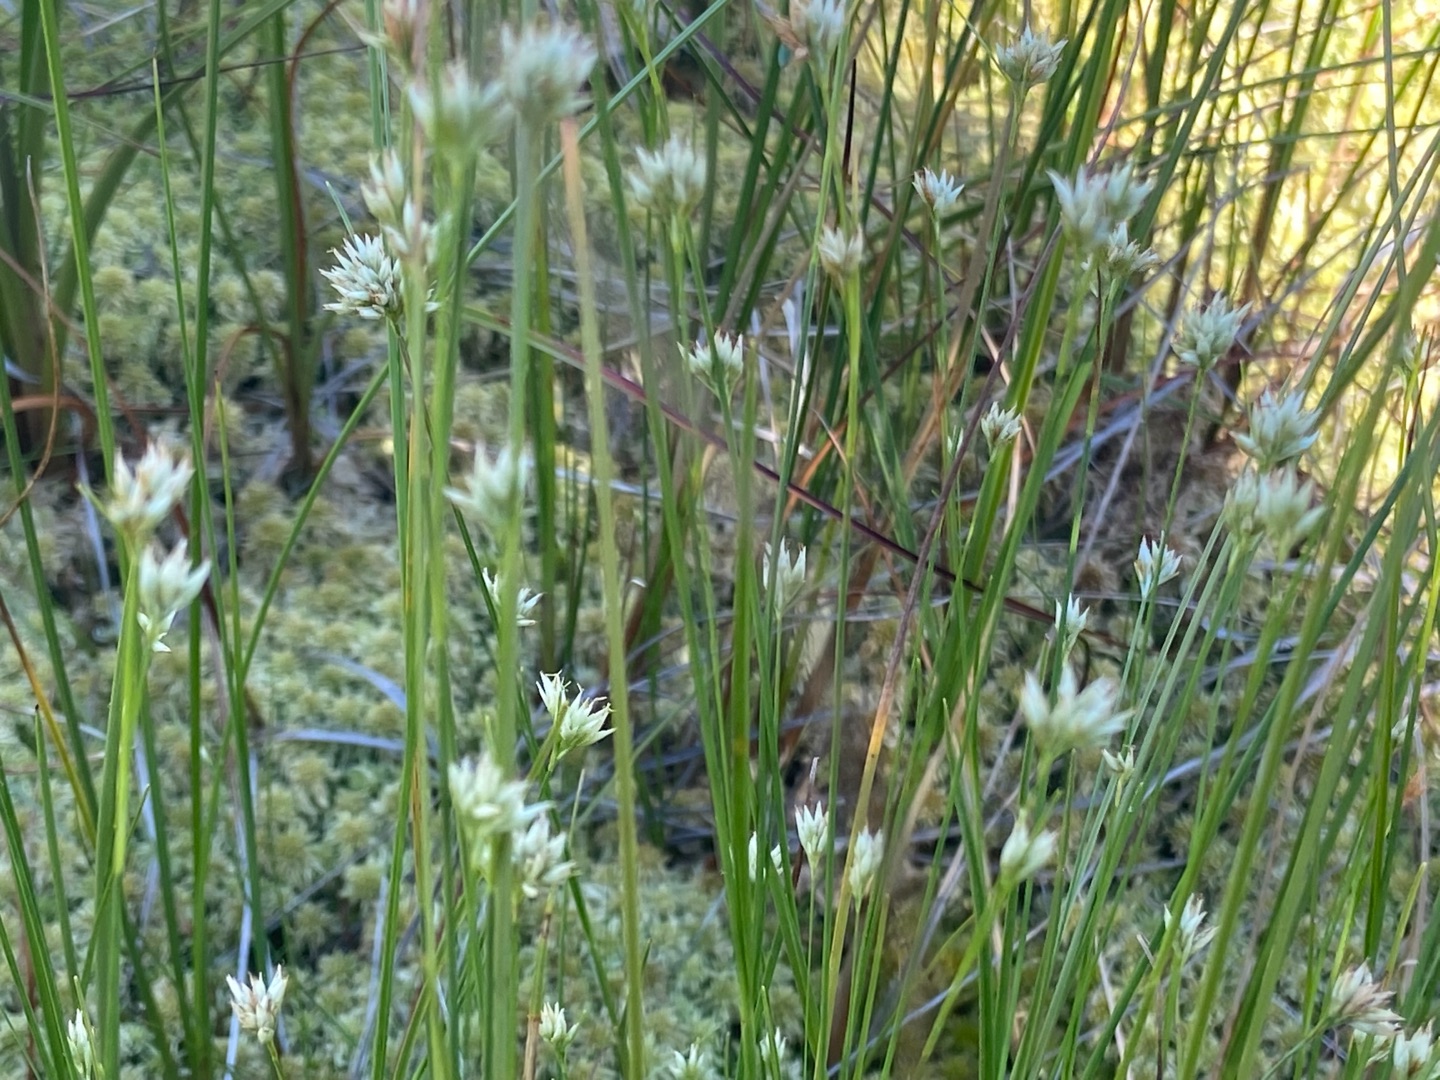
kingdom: Plantae
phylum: Tracheophyta
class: Liliopsida
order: Poales
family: Cyperaceae
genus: Rhynchospora
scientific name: Rhynchospora alba
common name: Hvid næbfrø
